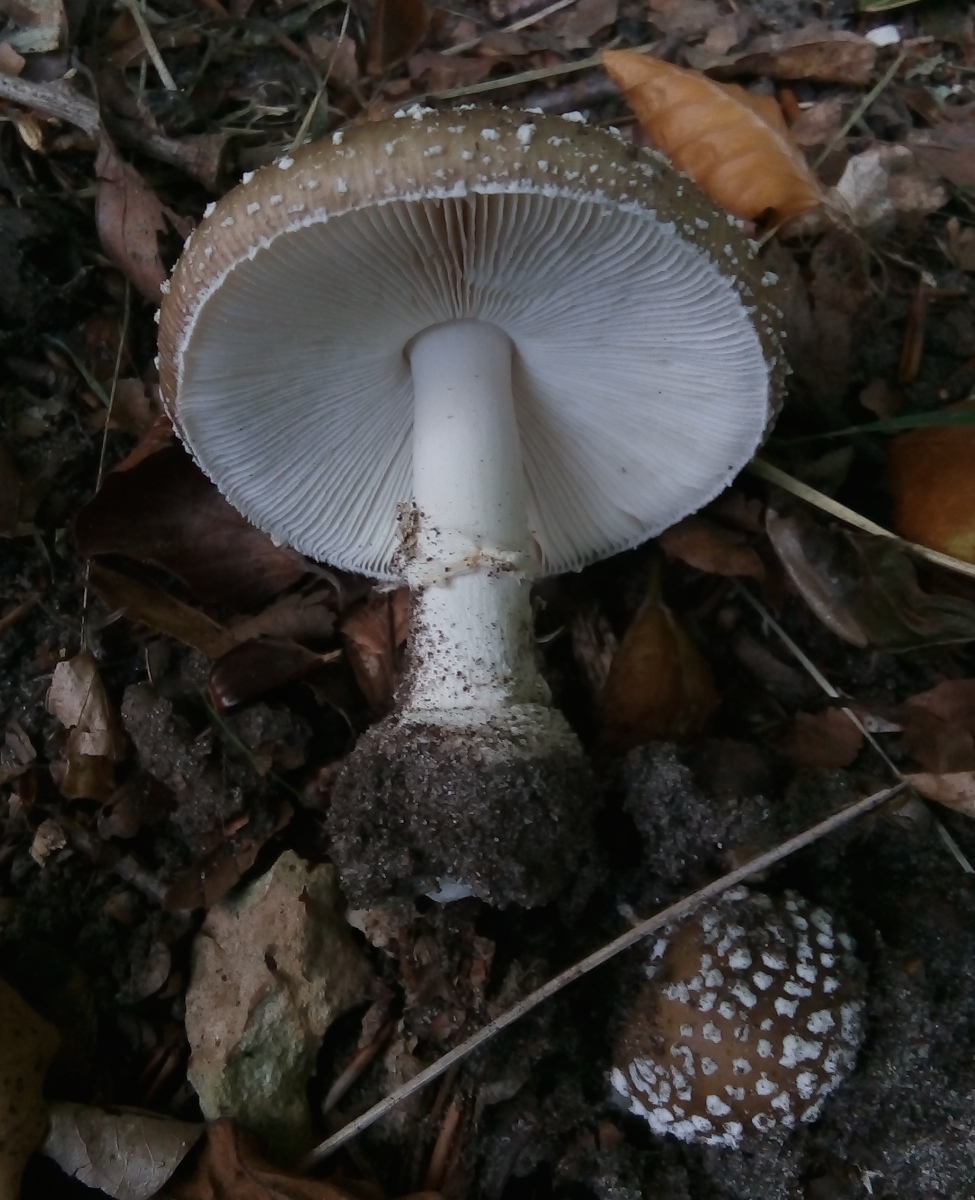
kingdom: Fungi
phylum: Basidiomycota
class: Agaricomycetes
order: Agaricales
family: Amanitaceae
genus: Amanita
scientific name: Amanita pantherina
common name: panter-fluesvamp
